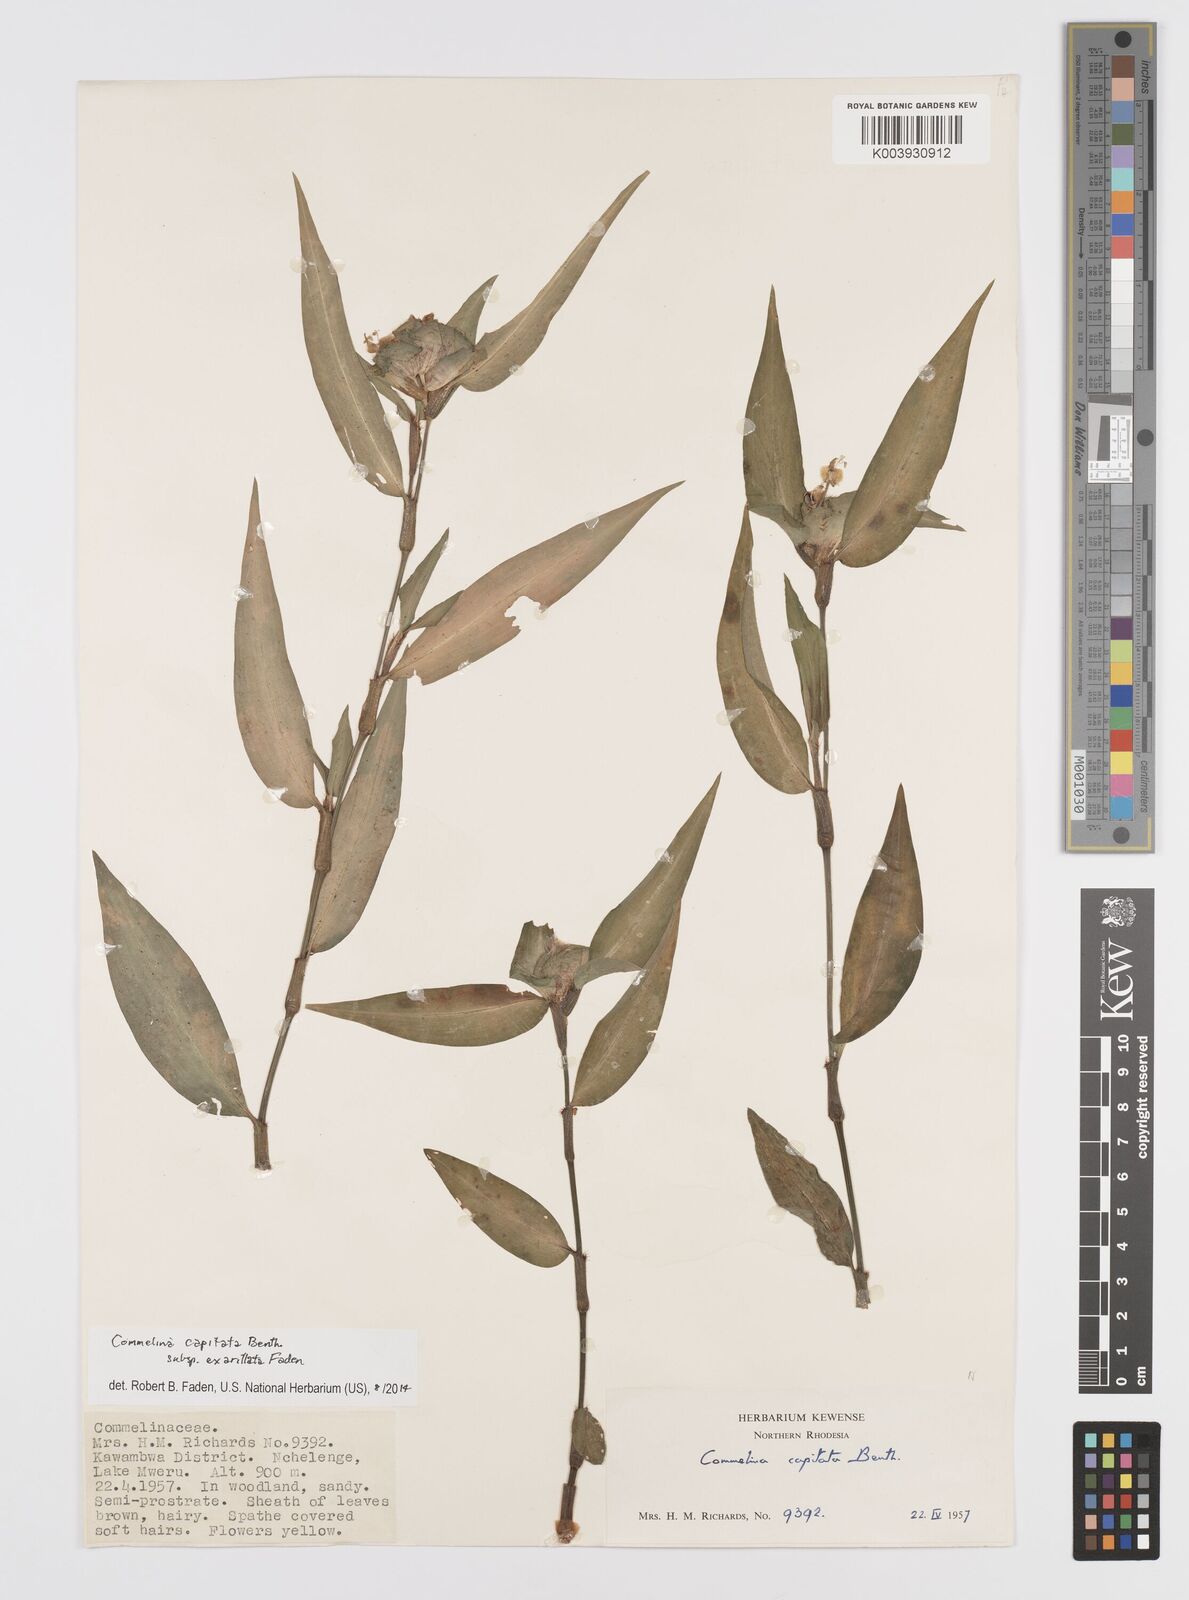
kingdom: Plantae
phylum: Tracheophyta
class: Liliopsida
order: Commelinales
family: Commelinaceae
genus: Commelina
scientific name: Commelina capitata
